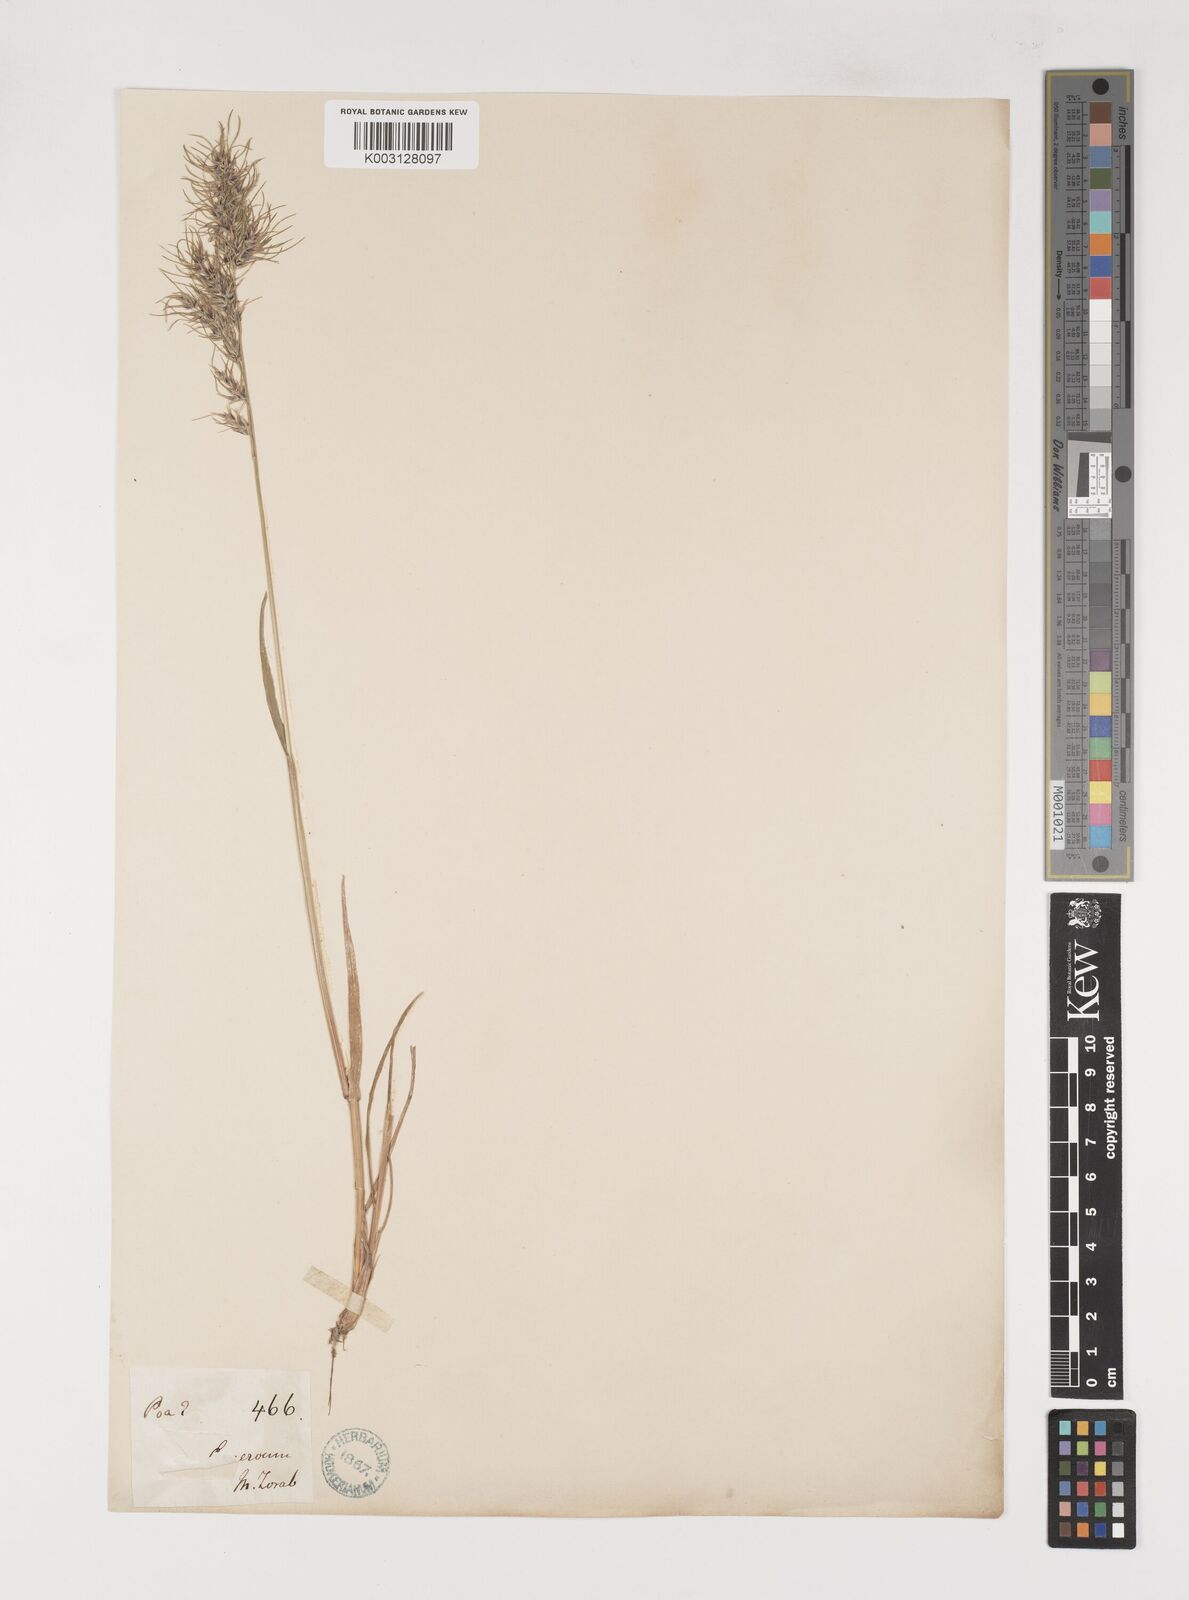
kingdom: Plantae
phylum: Tracheophyta
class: Liliopsida
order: Poales
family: Poaceae
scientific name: Poaceae
